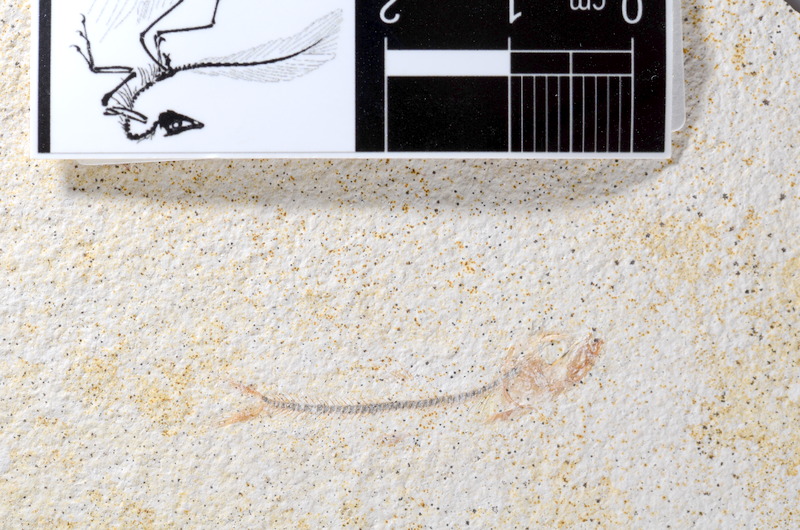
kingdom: Animalia
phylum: Chordata
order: Salmoniformes
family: Orthogonikleithridae
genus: Orthogonikleithrus
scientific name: Orthogonikleithrus hoelli
